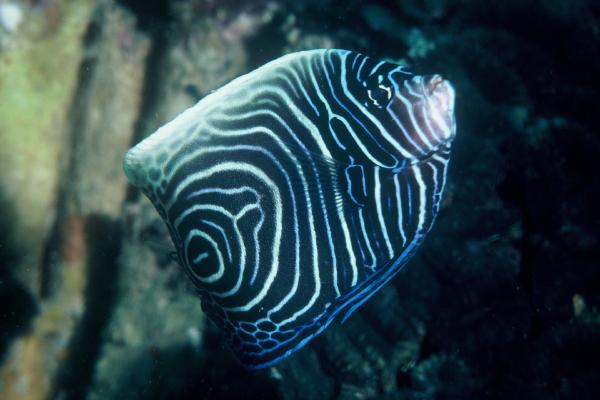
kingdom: Animalia
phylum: Chordata
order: Perciformes
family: Pomacanthidae
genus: Pomacanthus
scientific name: Pomacanthus imperator
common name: Emperor angelfish
